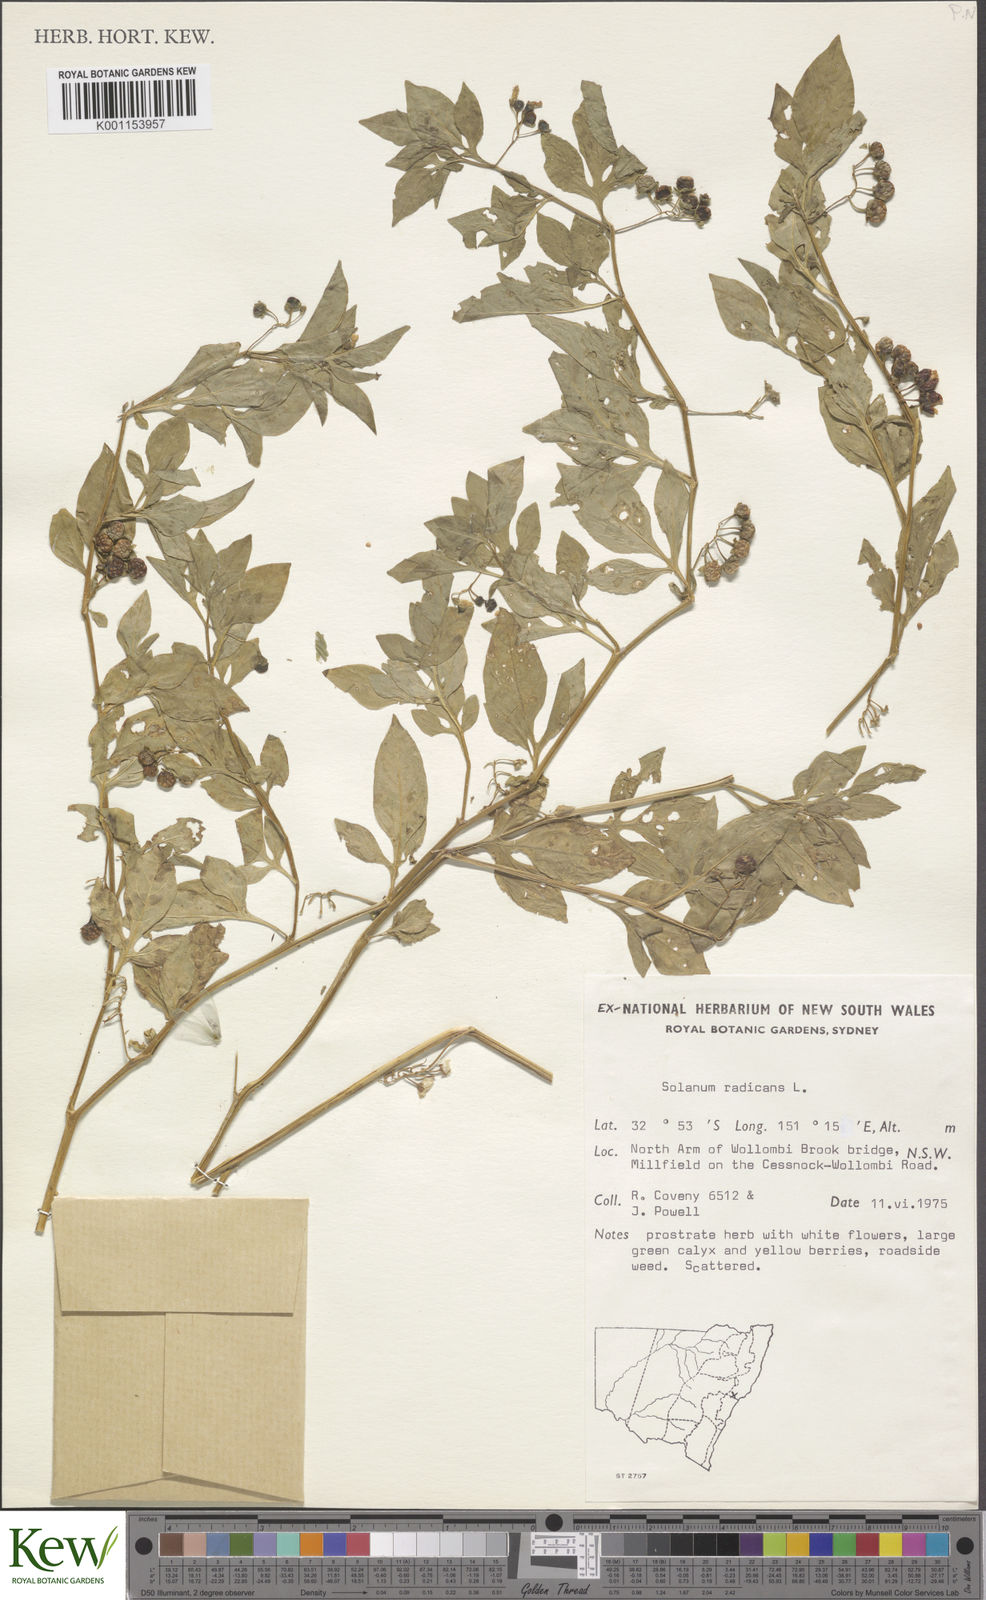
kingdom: Plantae
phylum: Tracheophyta
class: Magnoliopsida
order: Solanales
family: Solanaceae
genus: Solanum
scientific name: Solanum palitans
